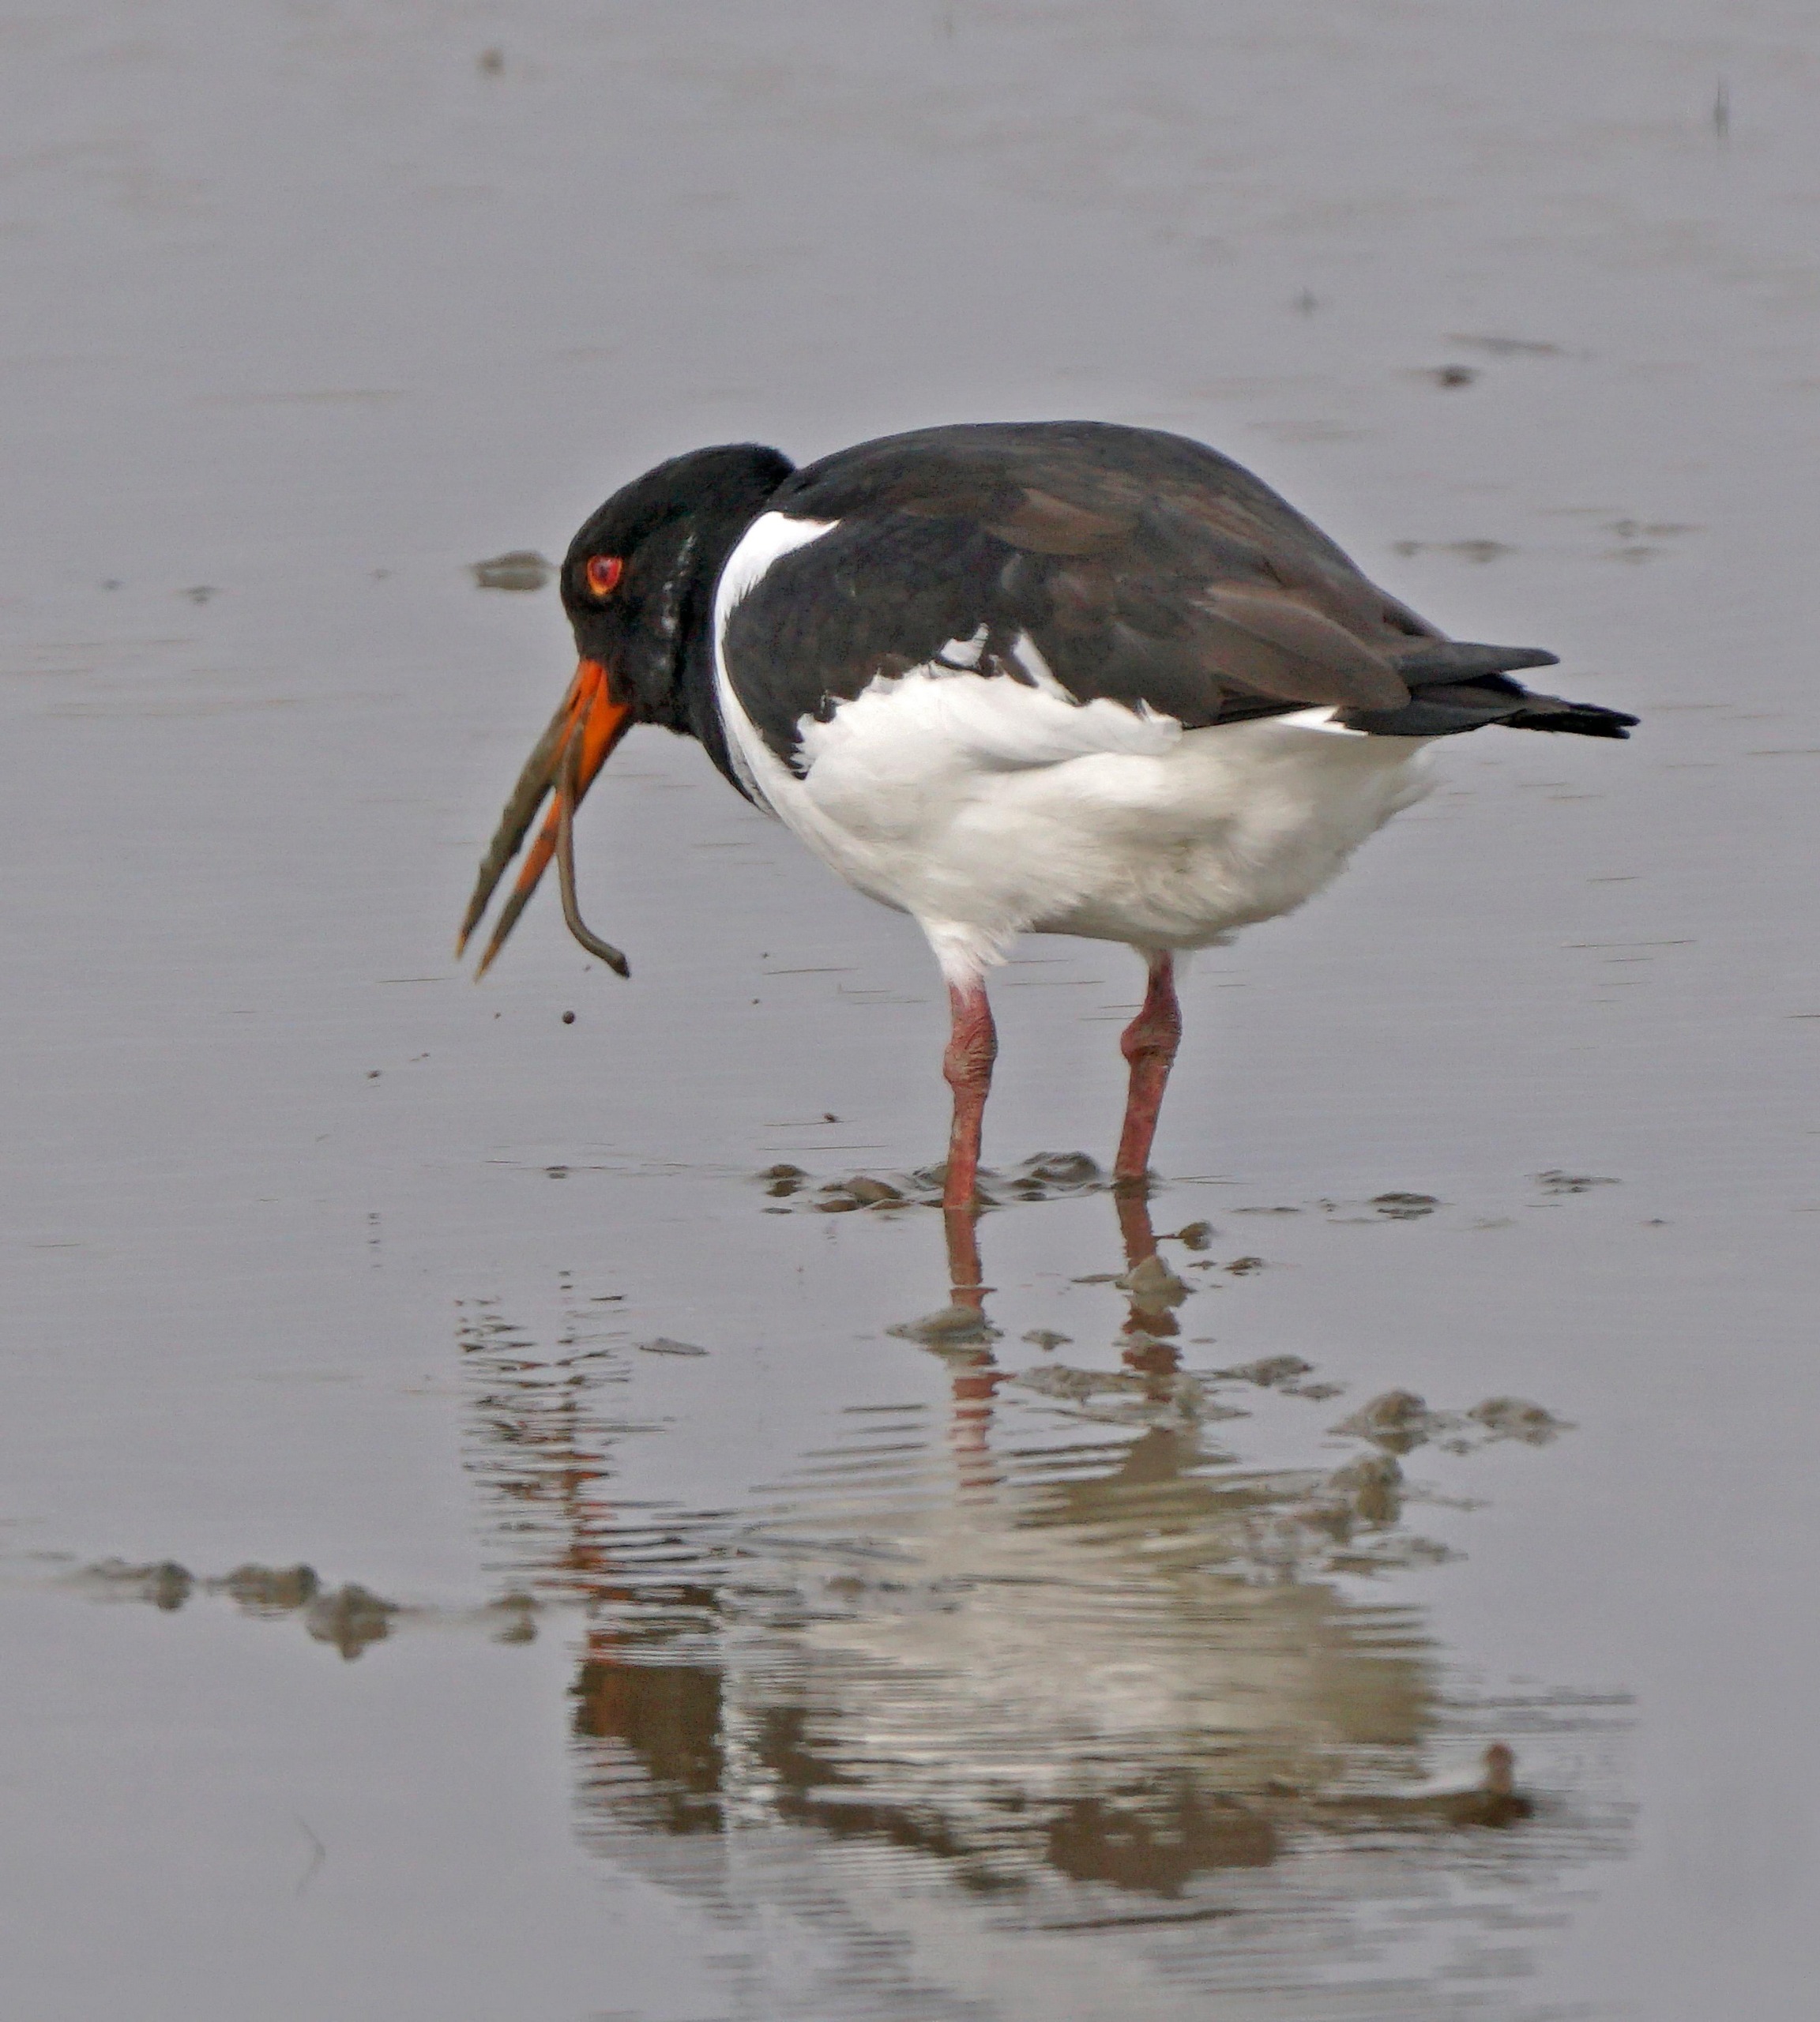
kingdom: Animalia
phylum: Chordata
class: Aves
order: Charadriiformes
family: Haematopodidae
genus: Haematopus
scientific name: Haematopus ostralegus
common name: Strandskade
